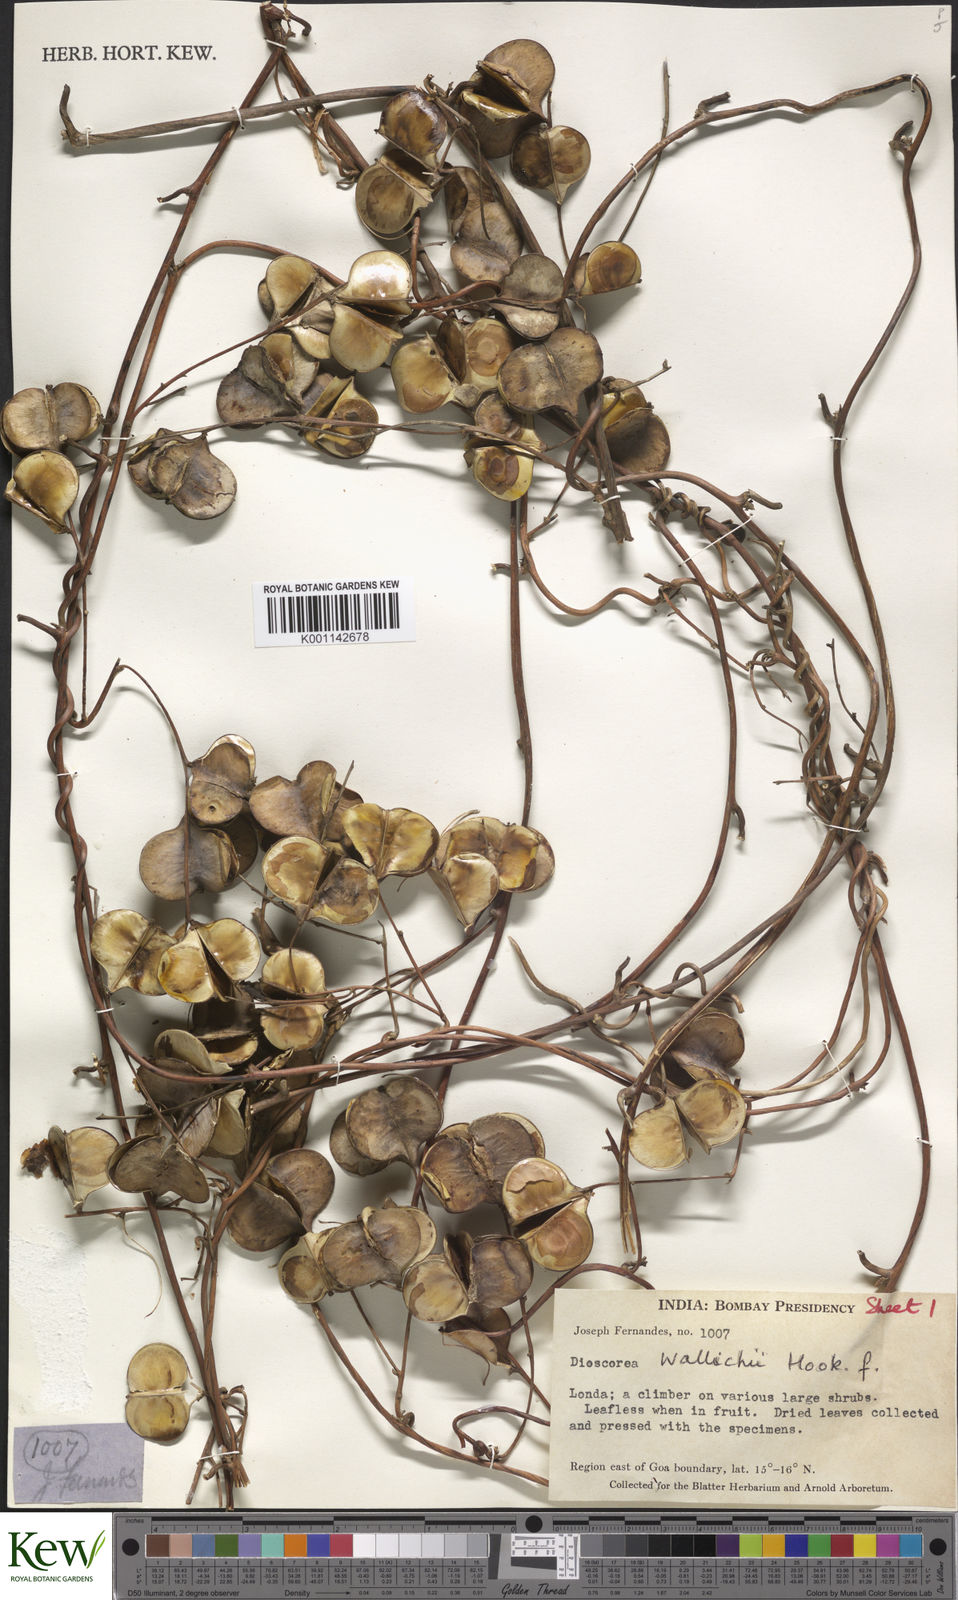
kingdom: Plantae
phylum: Tracheophyta
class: Liliopsida
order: Dioscoreales
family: Dioscoreaceae
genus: Dioscorea
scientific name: Dioscorea wallichii
